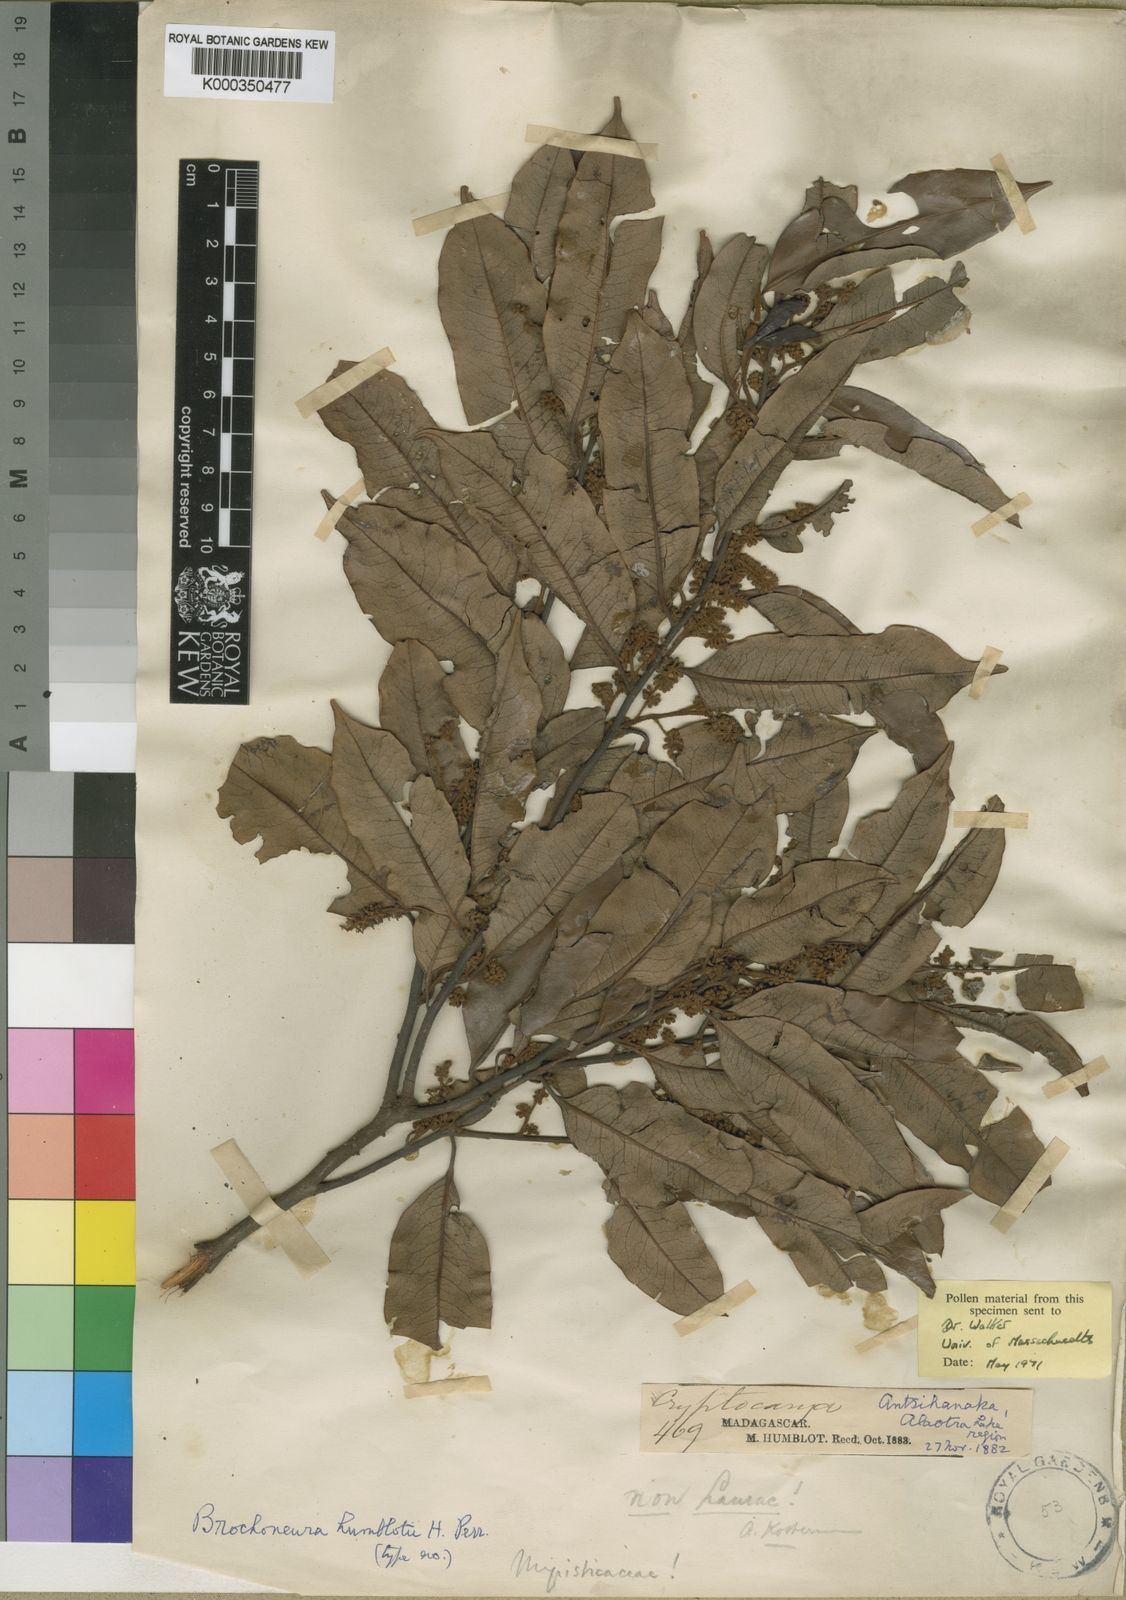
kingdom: Plantae
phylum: Tracheophyta
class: Magnoliopsida
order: Magnoliales
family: Myristicaceae
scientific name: Myristicaceae
